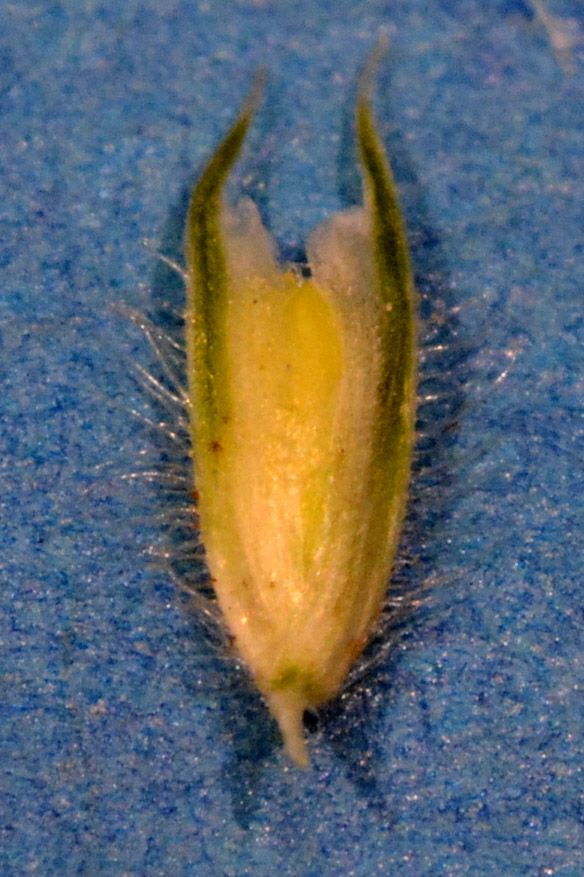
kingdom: Plantae
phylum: Tracheophyta
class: Liliopsida
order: Poales
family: Poaceae
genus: Phleum
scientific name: Phleum pratense
